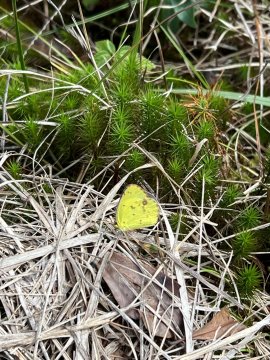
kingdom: Animalia
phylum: Arthropoda
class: Insecta
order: Lepidoptera
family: Pieridae
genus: Pyrisitia
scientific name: Pyrisitia lisa
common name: Little Yellow
